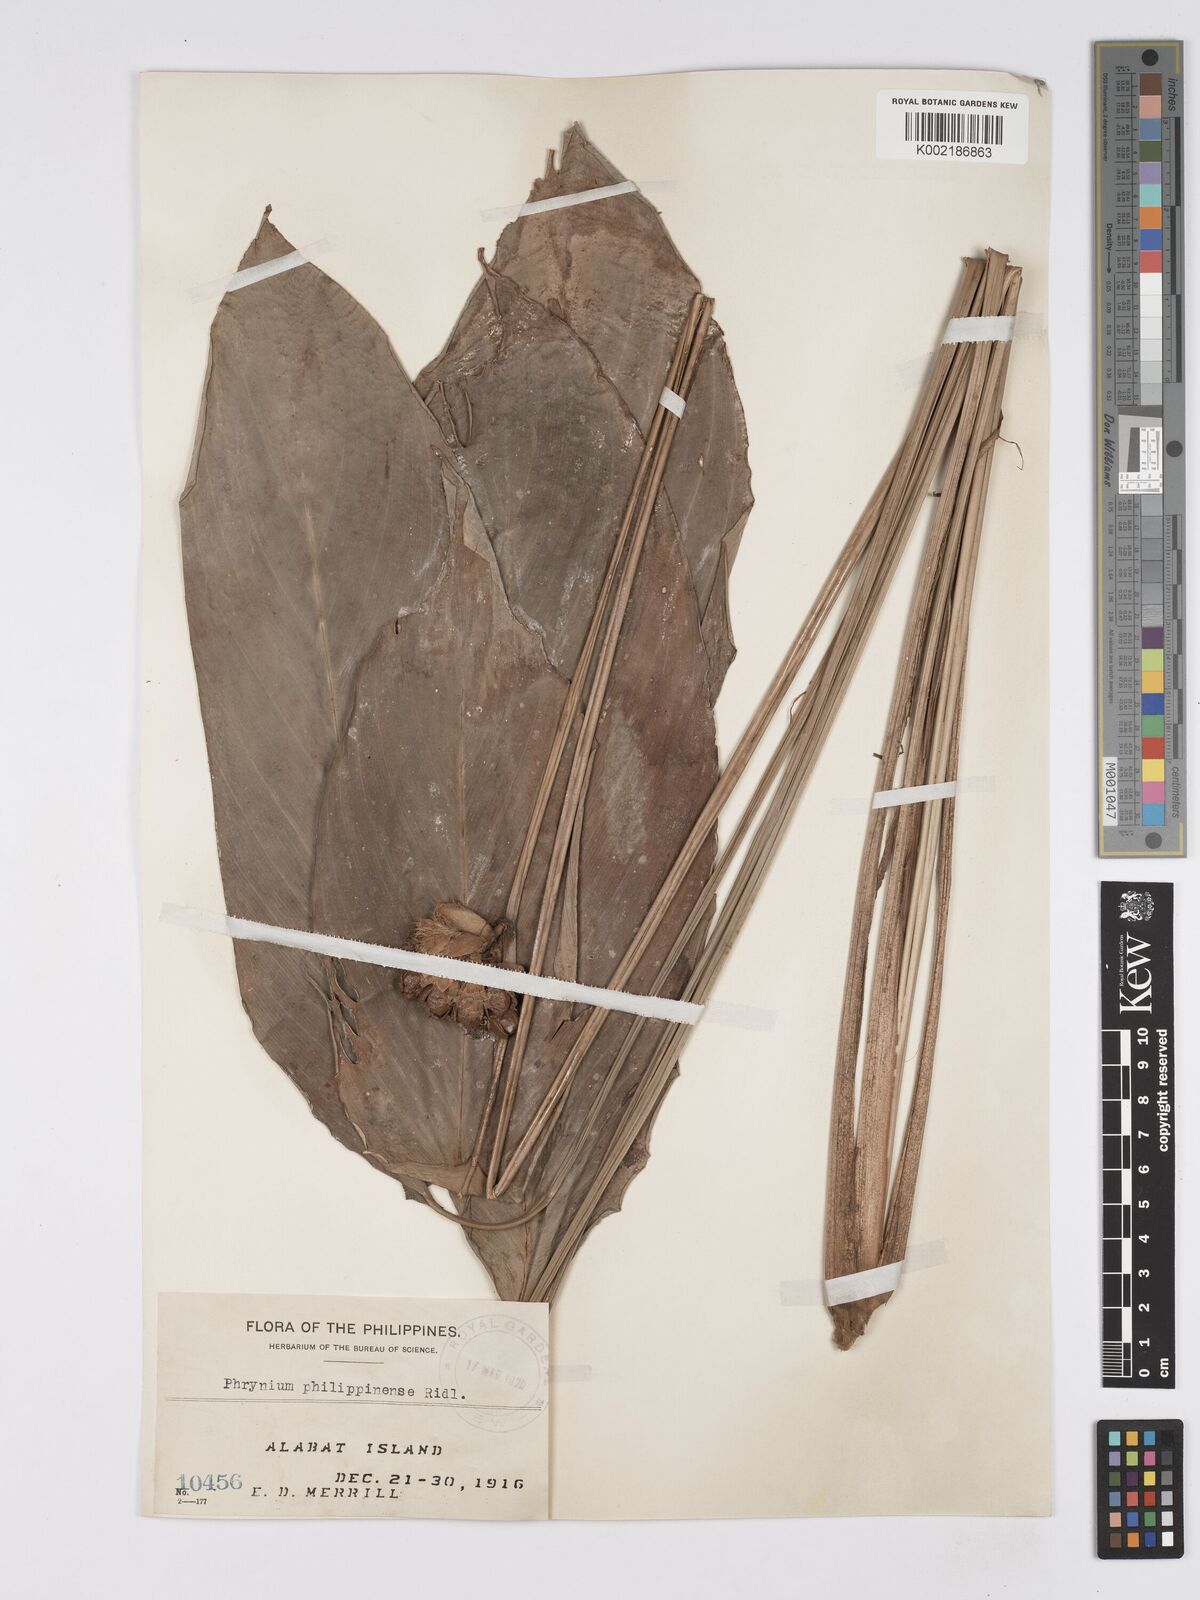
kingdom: Plantae
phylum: Tracheophyta
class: Liliopsida
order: Zingiberales
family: Marantaceae
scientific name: Marantaceae
